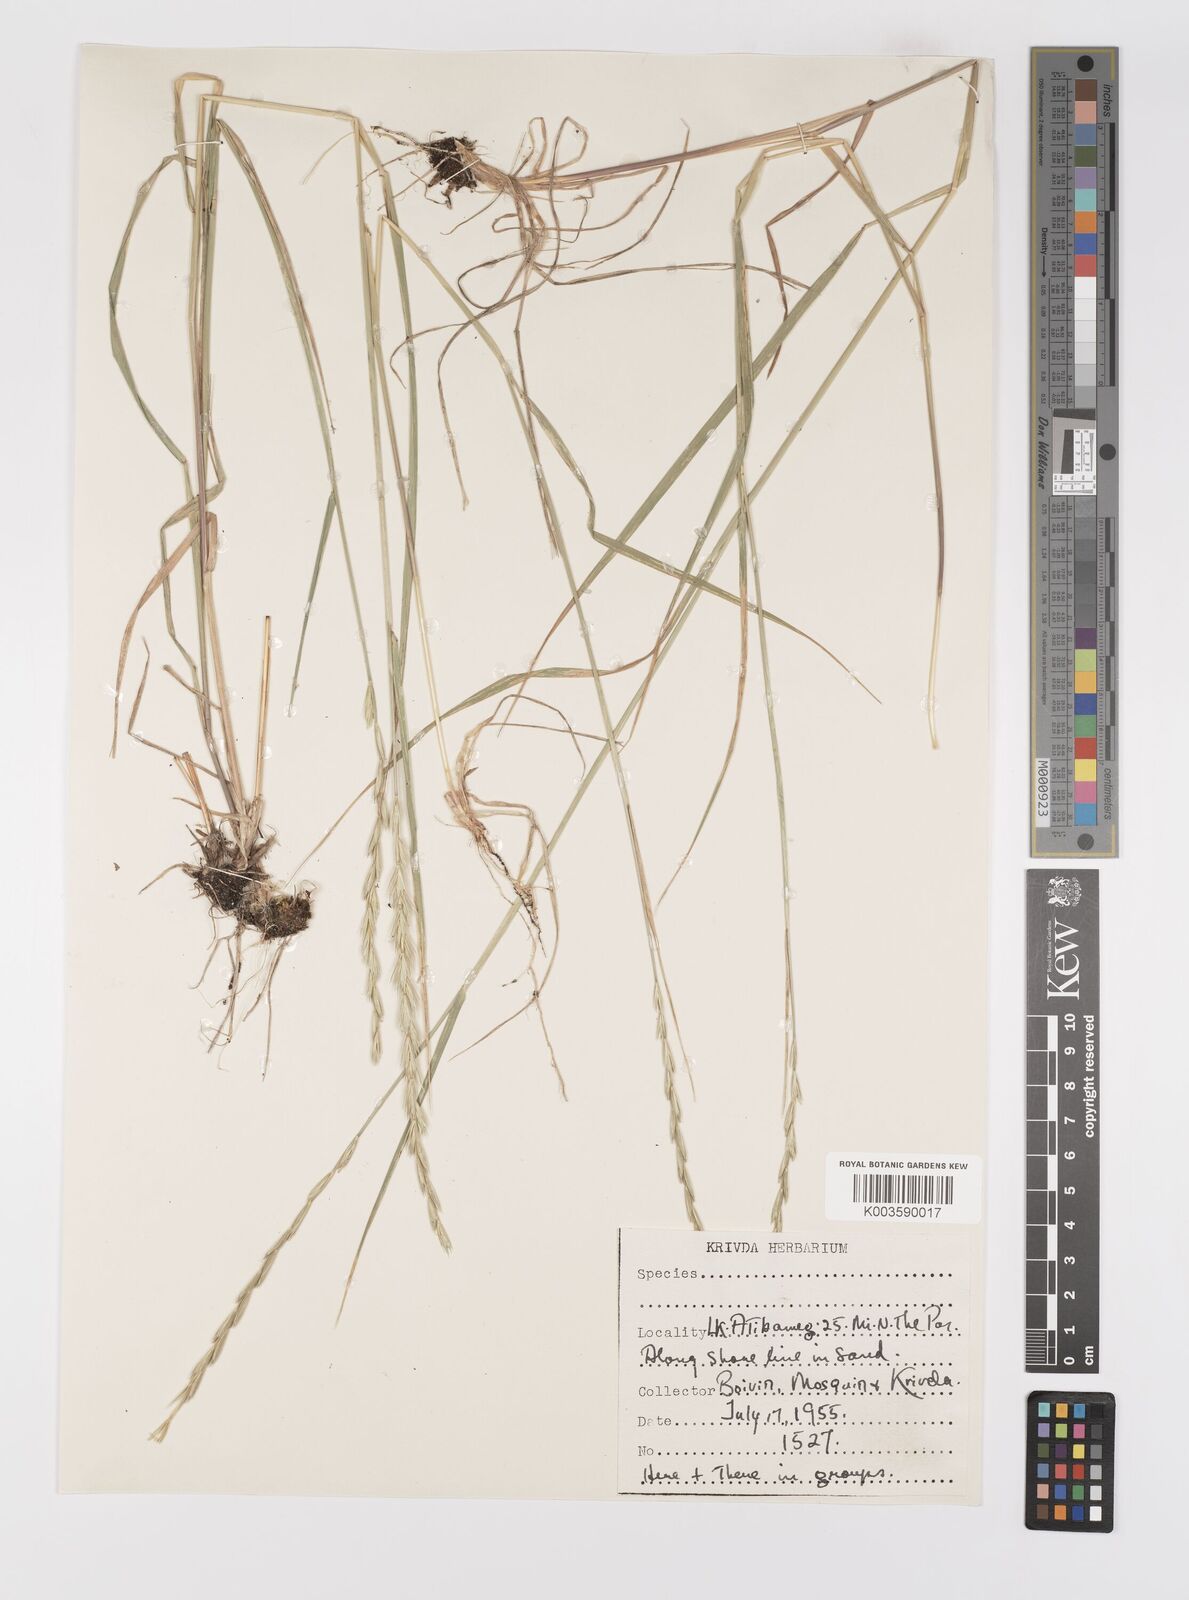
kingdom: Plantae
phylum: Tracheophyta
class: Liliopsida
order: Poales
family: Poaceae
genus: Elymus
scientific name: Elymus repens
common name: Quackgrass
